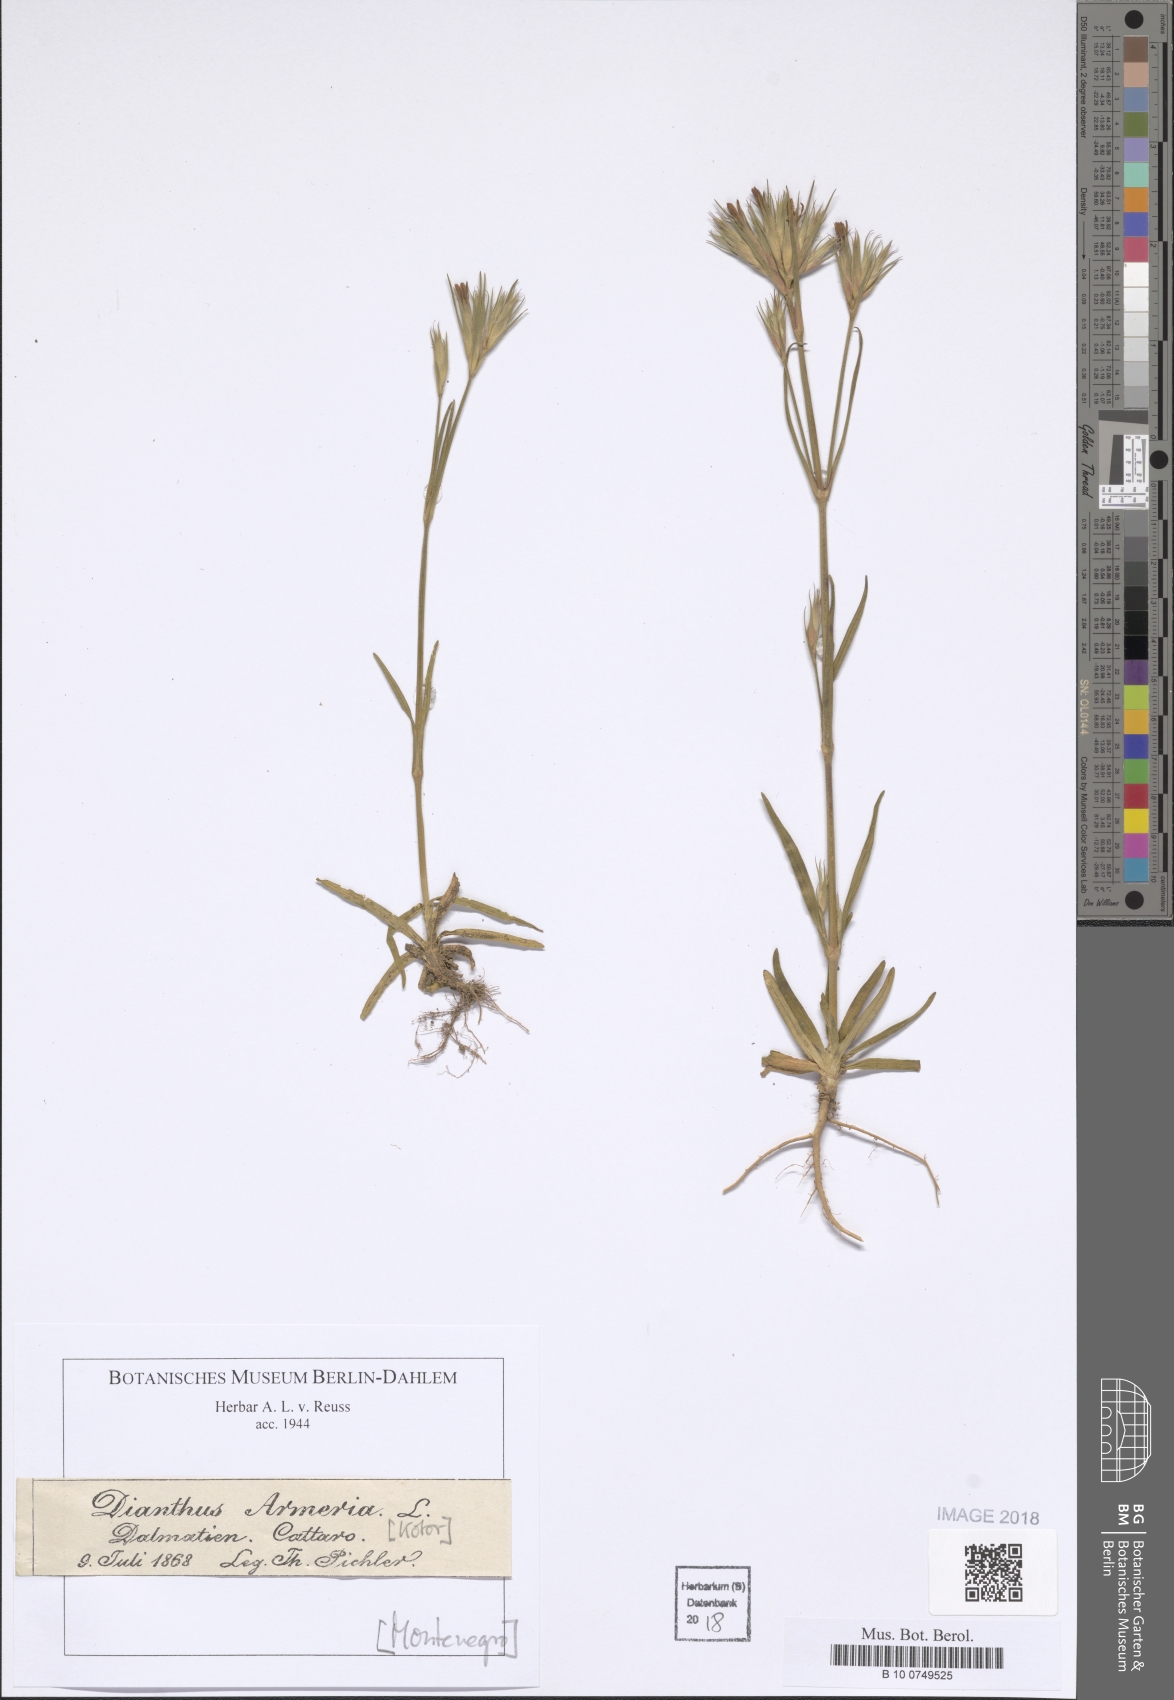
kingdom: Plantae
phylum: Tracheophyta
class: Magnoliopsida
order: Caryophyllales
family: Caryophyllaceae
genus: Dianthus
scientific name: Dianthus armeria
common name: Deptford pink
